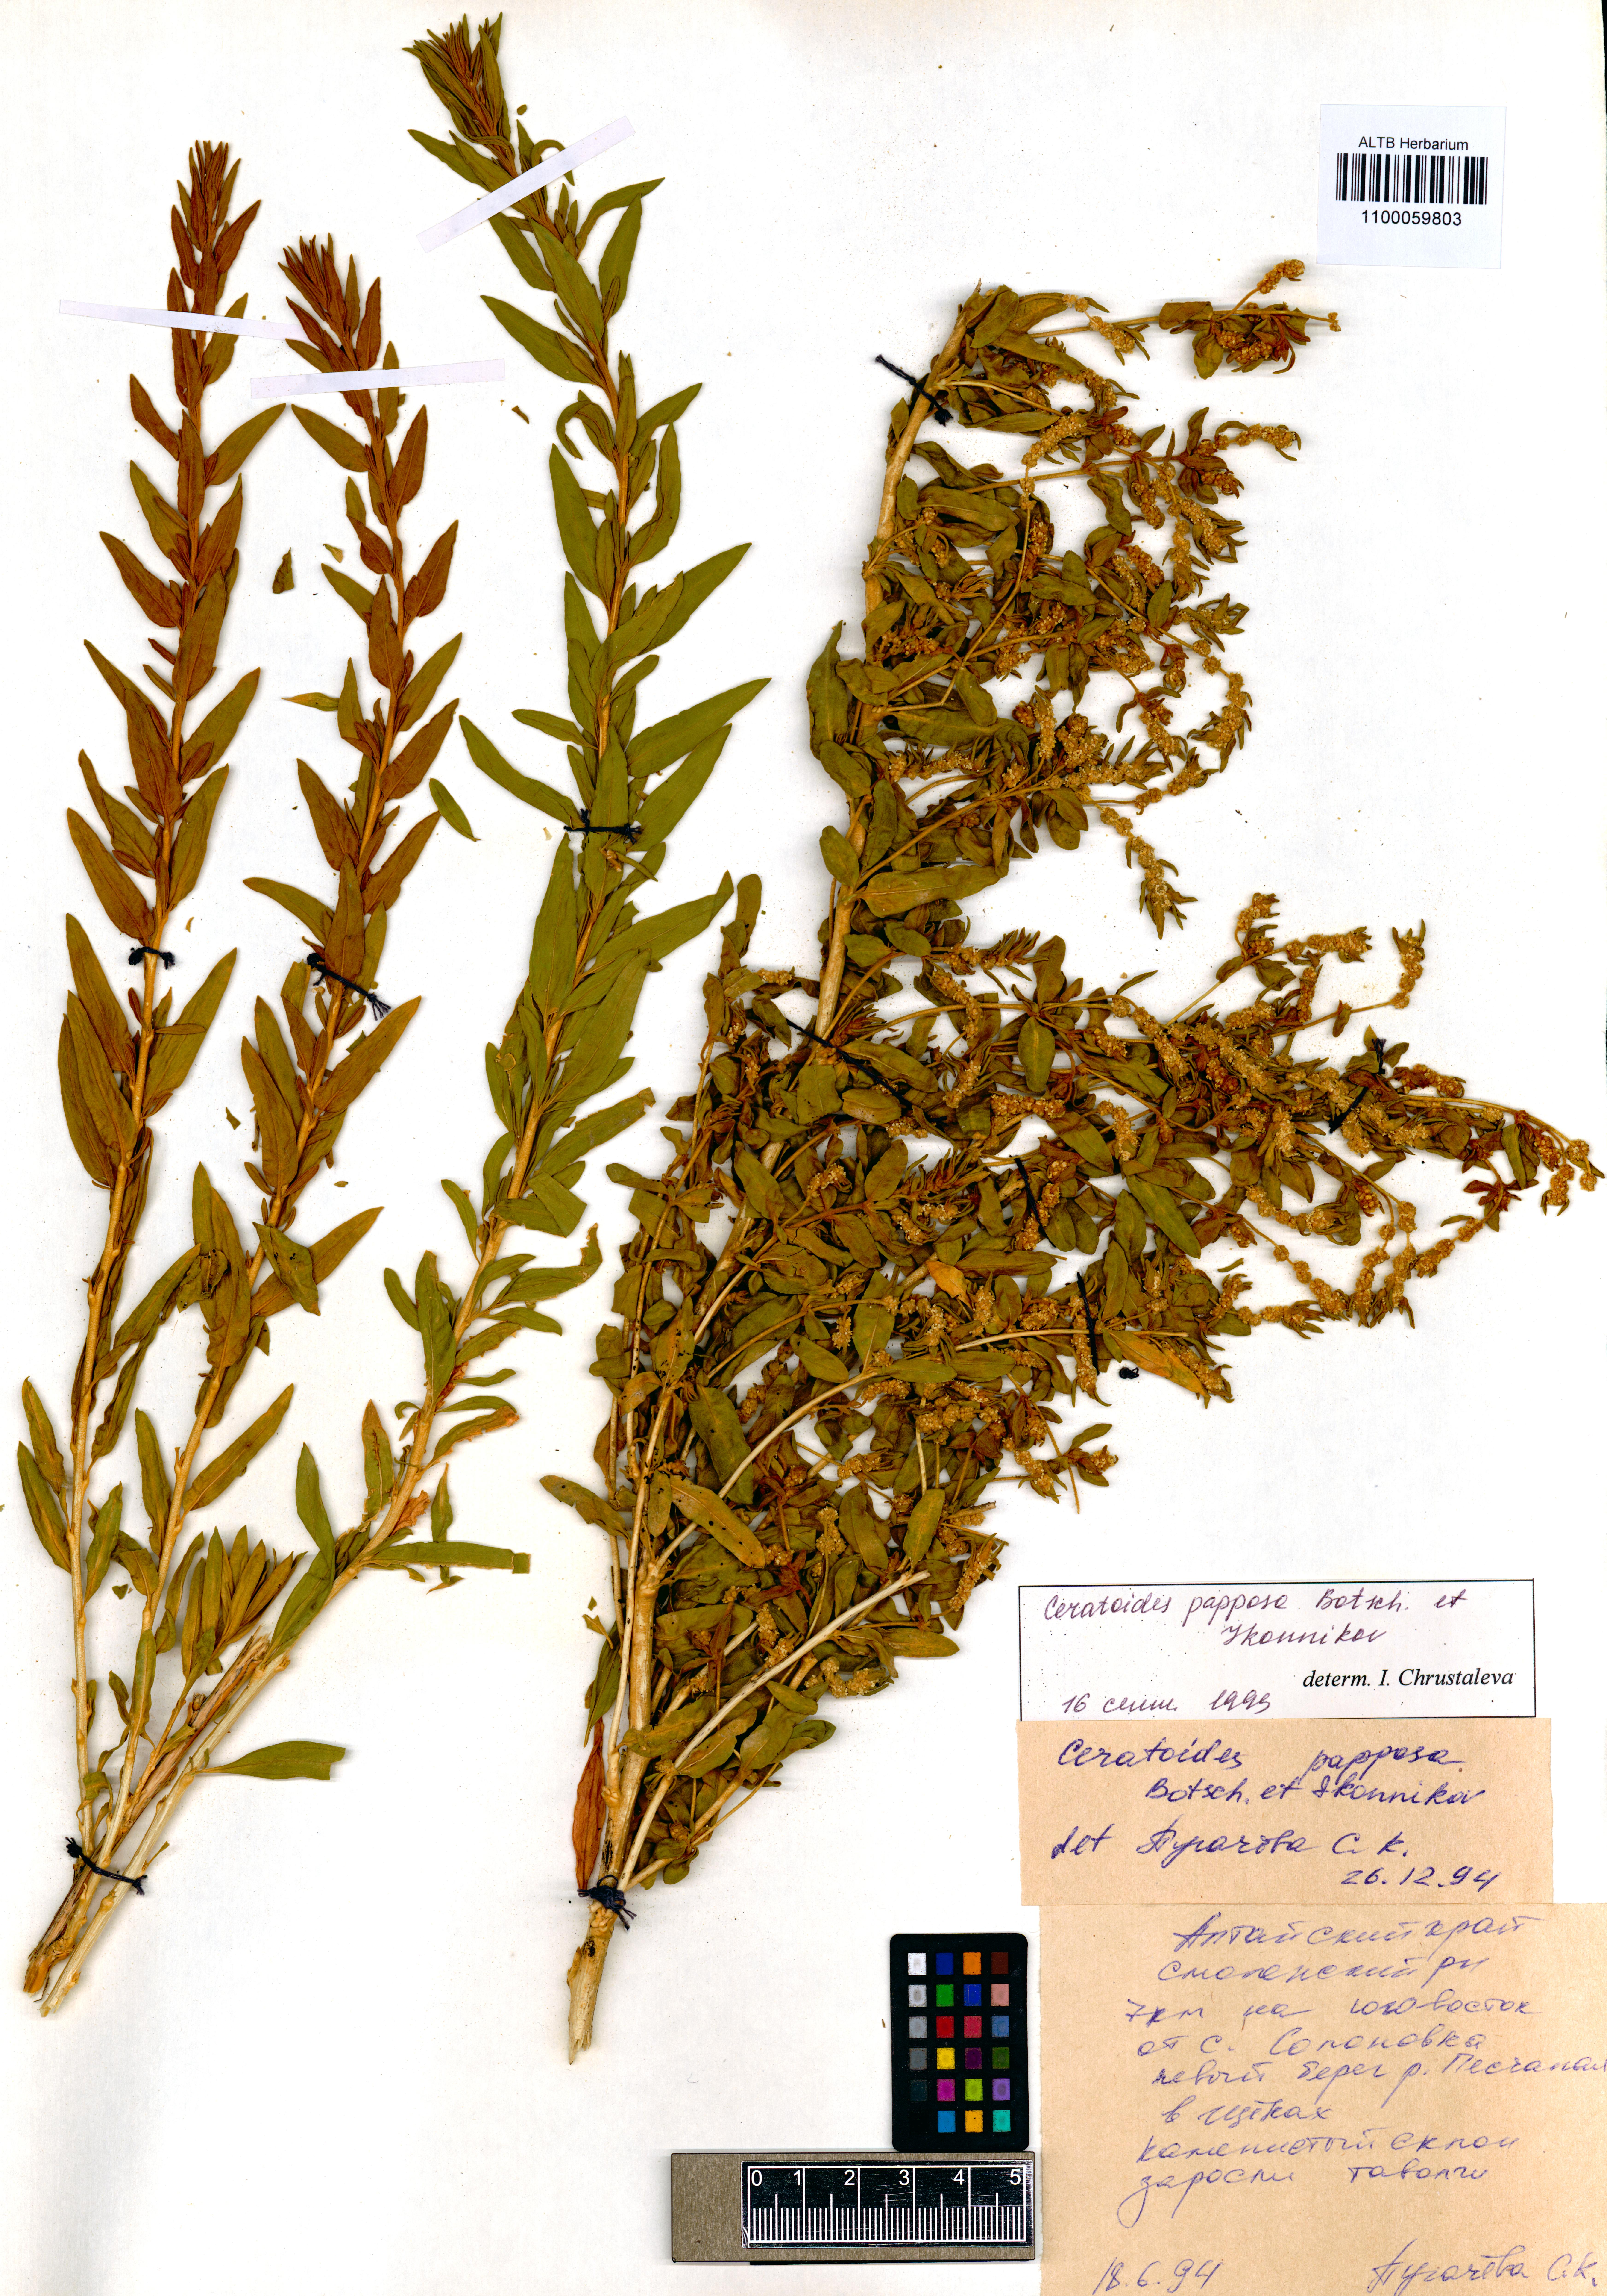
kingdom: Plantae
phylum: Tracheophyta
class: Magnoliopsida
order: Caryophyllales
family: Amaranthaceae
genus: Krascheninnikovia
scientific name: Krascheninnikovia ceratoides
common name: Pamirian winterfat
